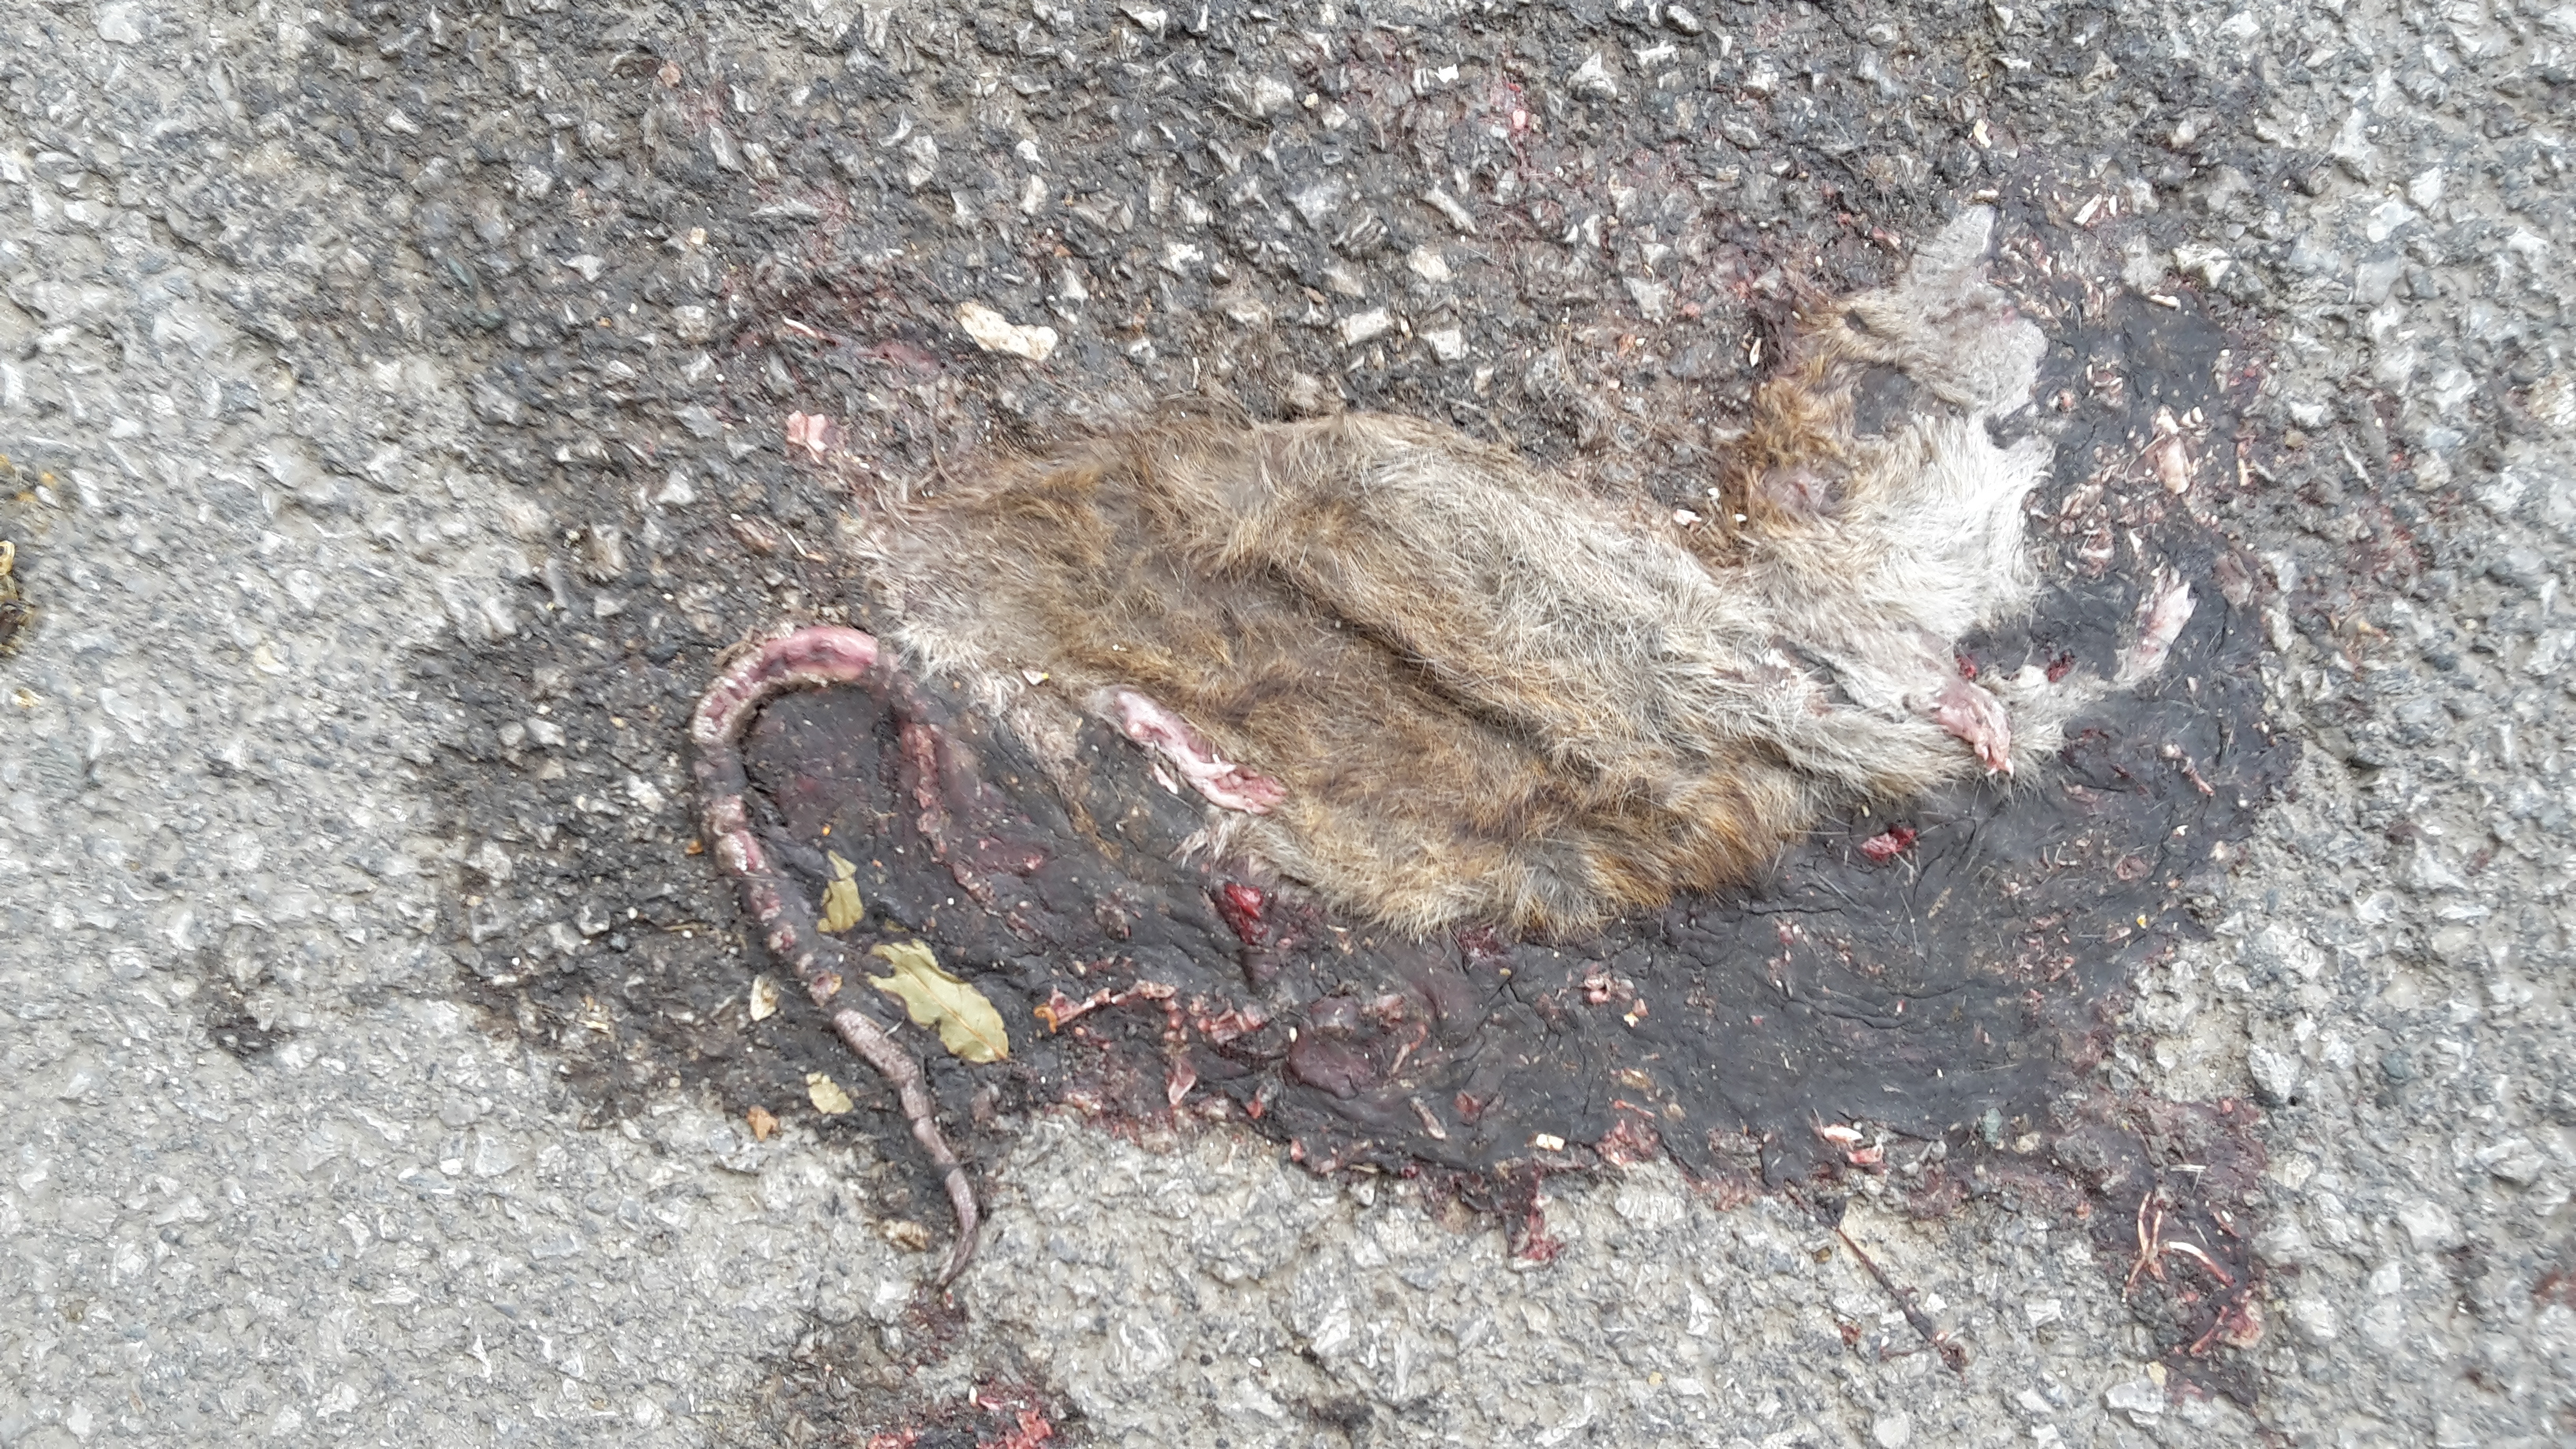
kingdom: Animalia
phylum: Chordata
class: Mammalia
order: Rodentia
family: Muridae
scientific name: Muridae
